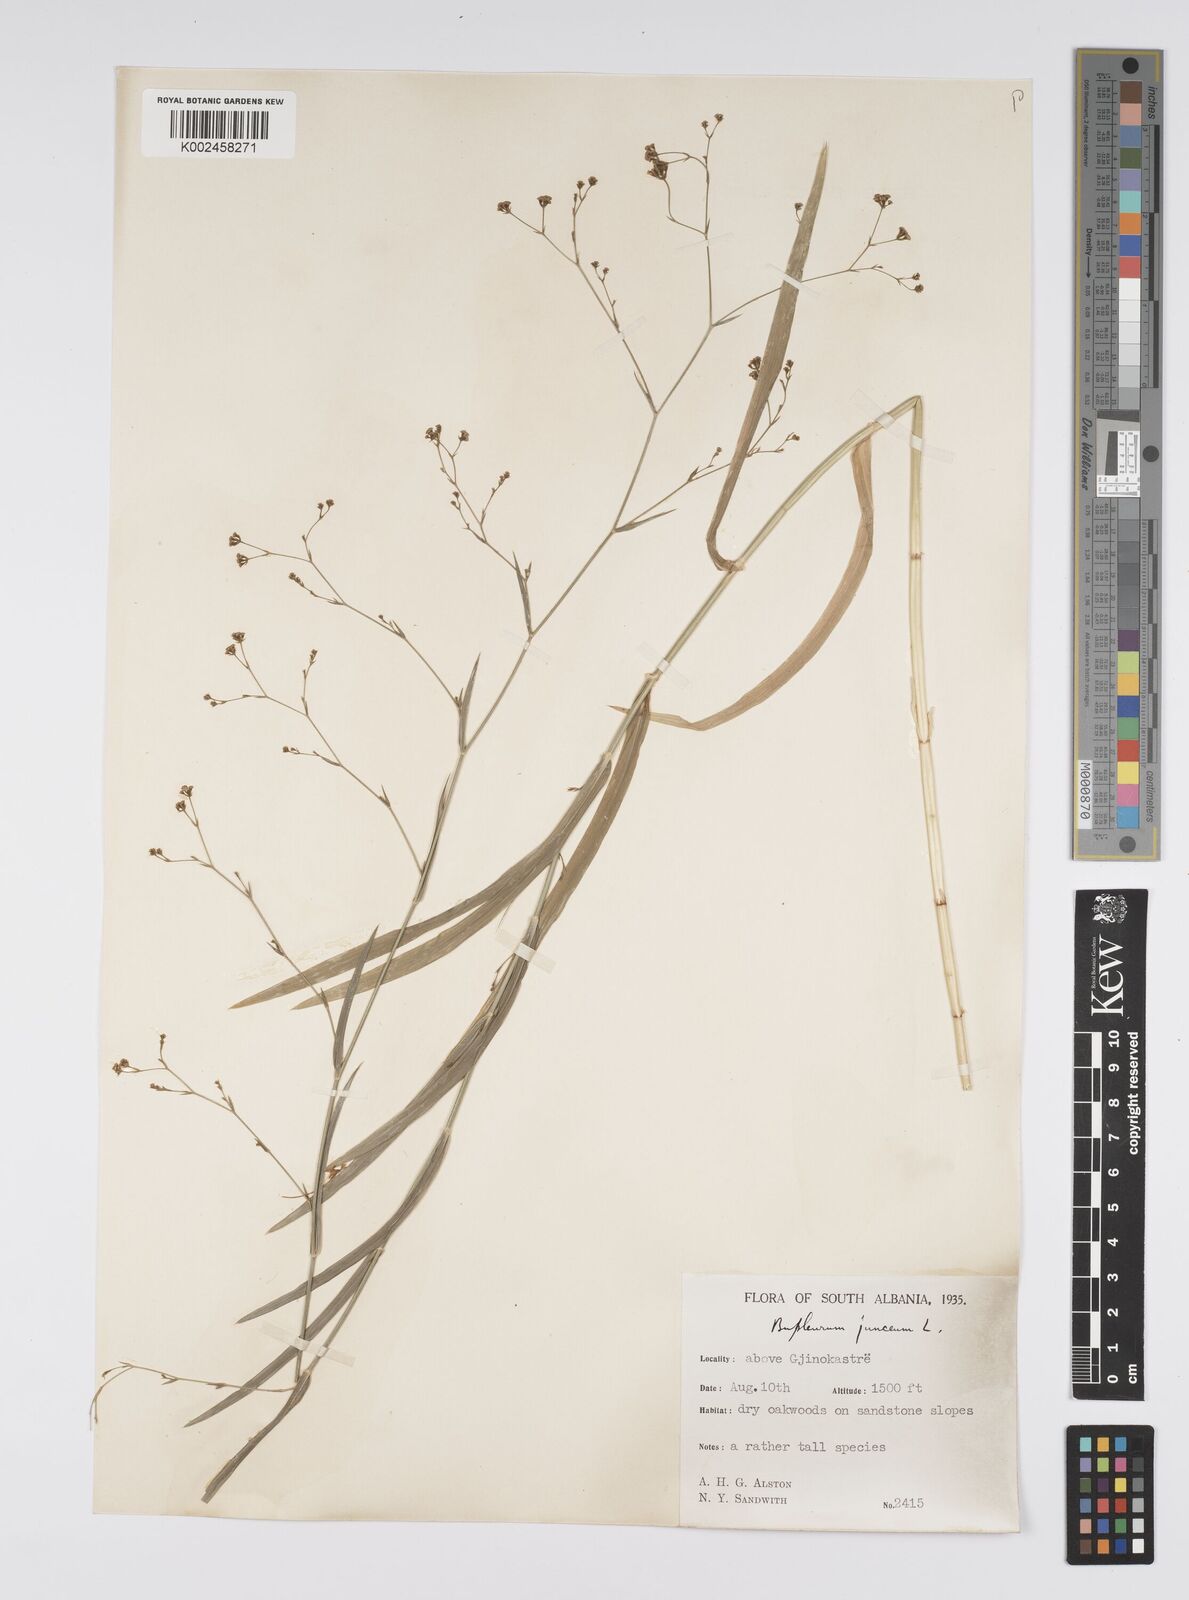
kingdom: Plantae
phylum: Tracheophyta
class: Magnoliopsida
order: Apiales
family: Apiaceae
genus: Bupleurum
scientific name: Bupleurum praealtum
